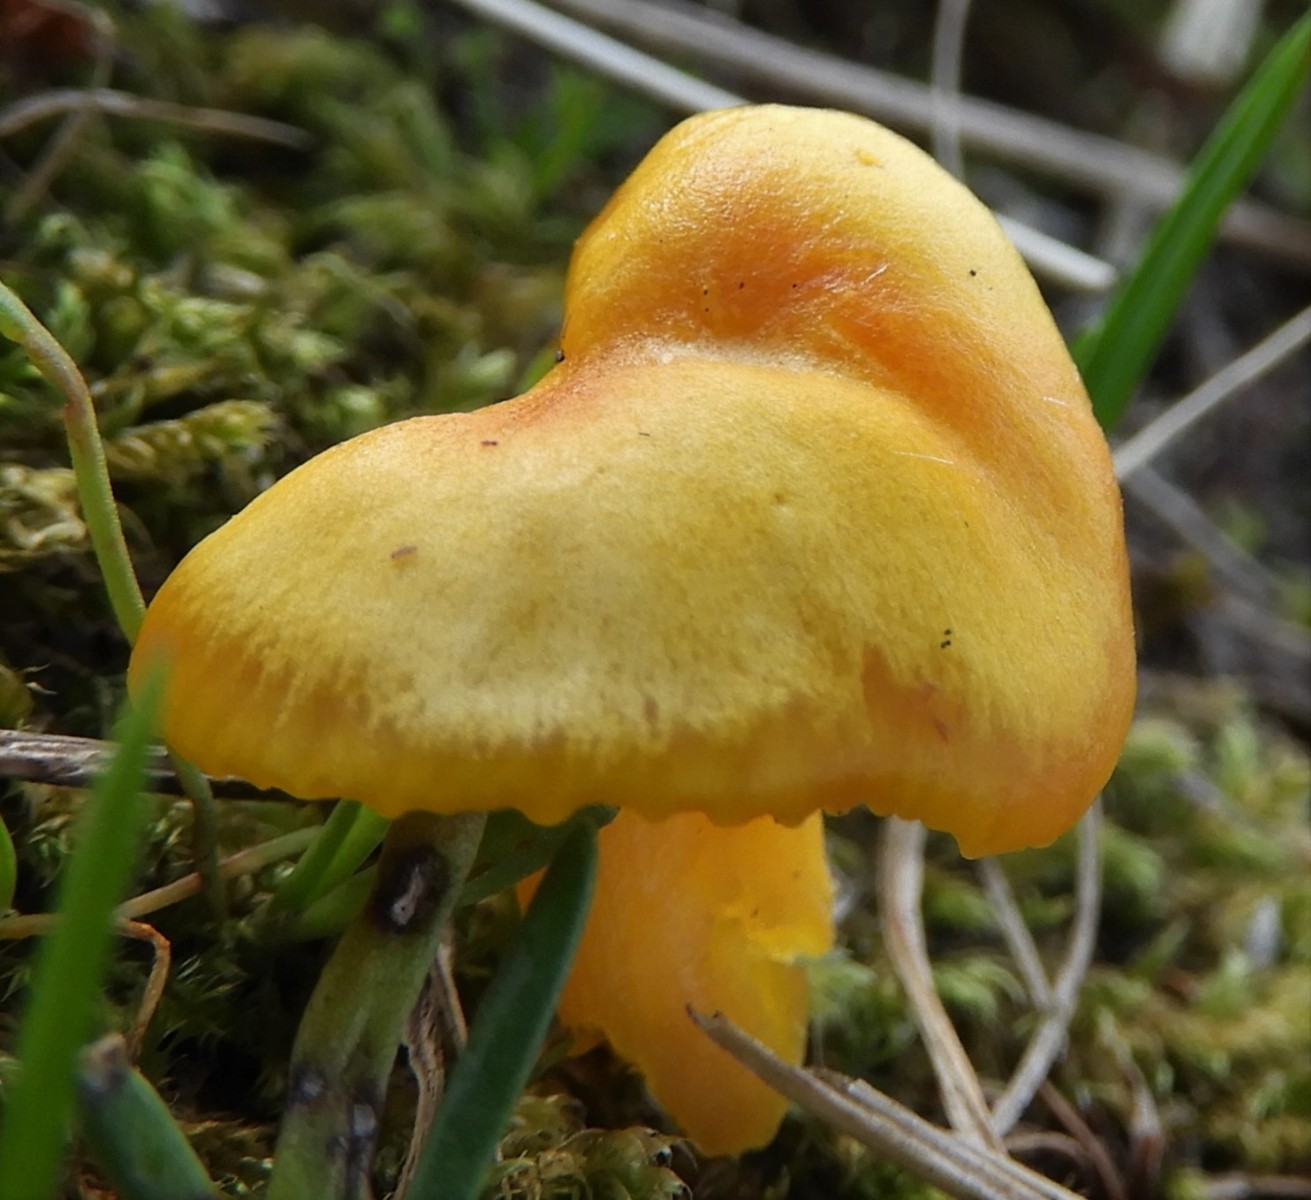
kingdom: Fungi
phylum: Basidiomycota
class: Agaricomycetes
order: Agaricales
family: Hygrophoraceae
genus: Hygrocybe
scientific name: Hygrocybe ceracea
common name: voksgul vokshat
